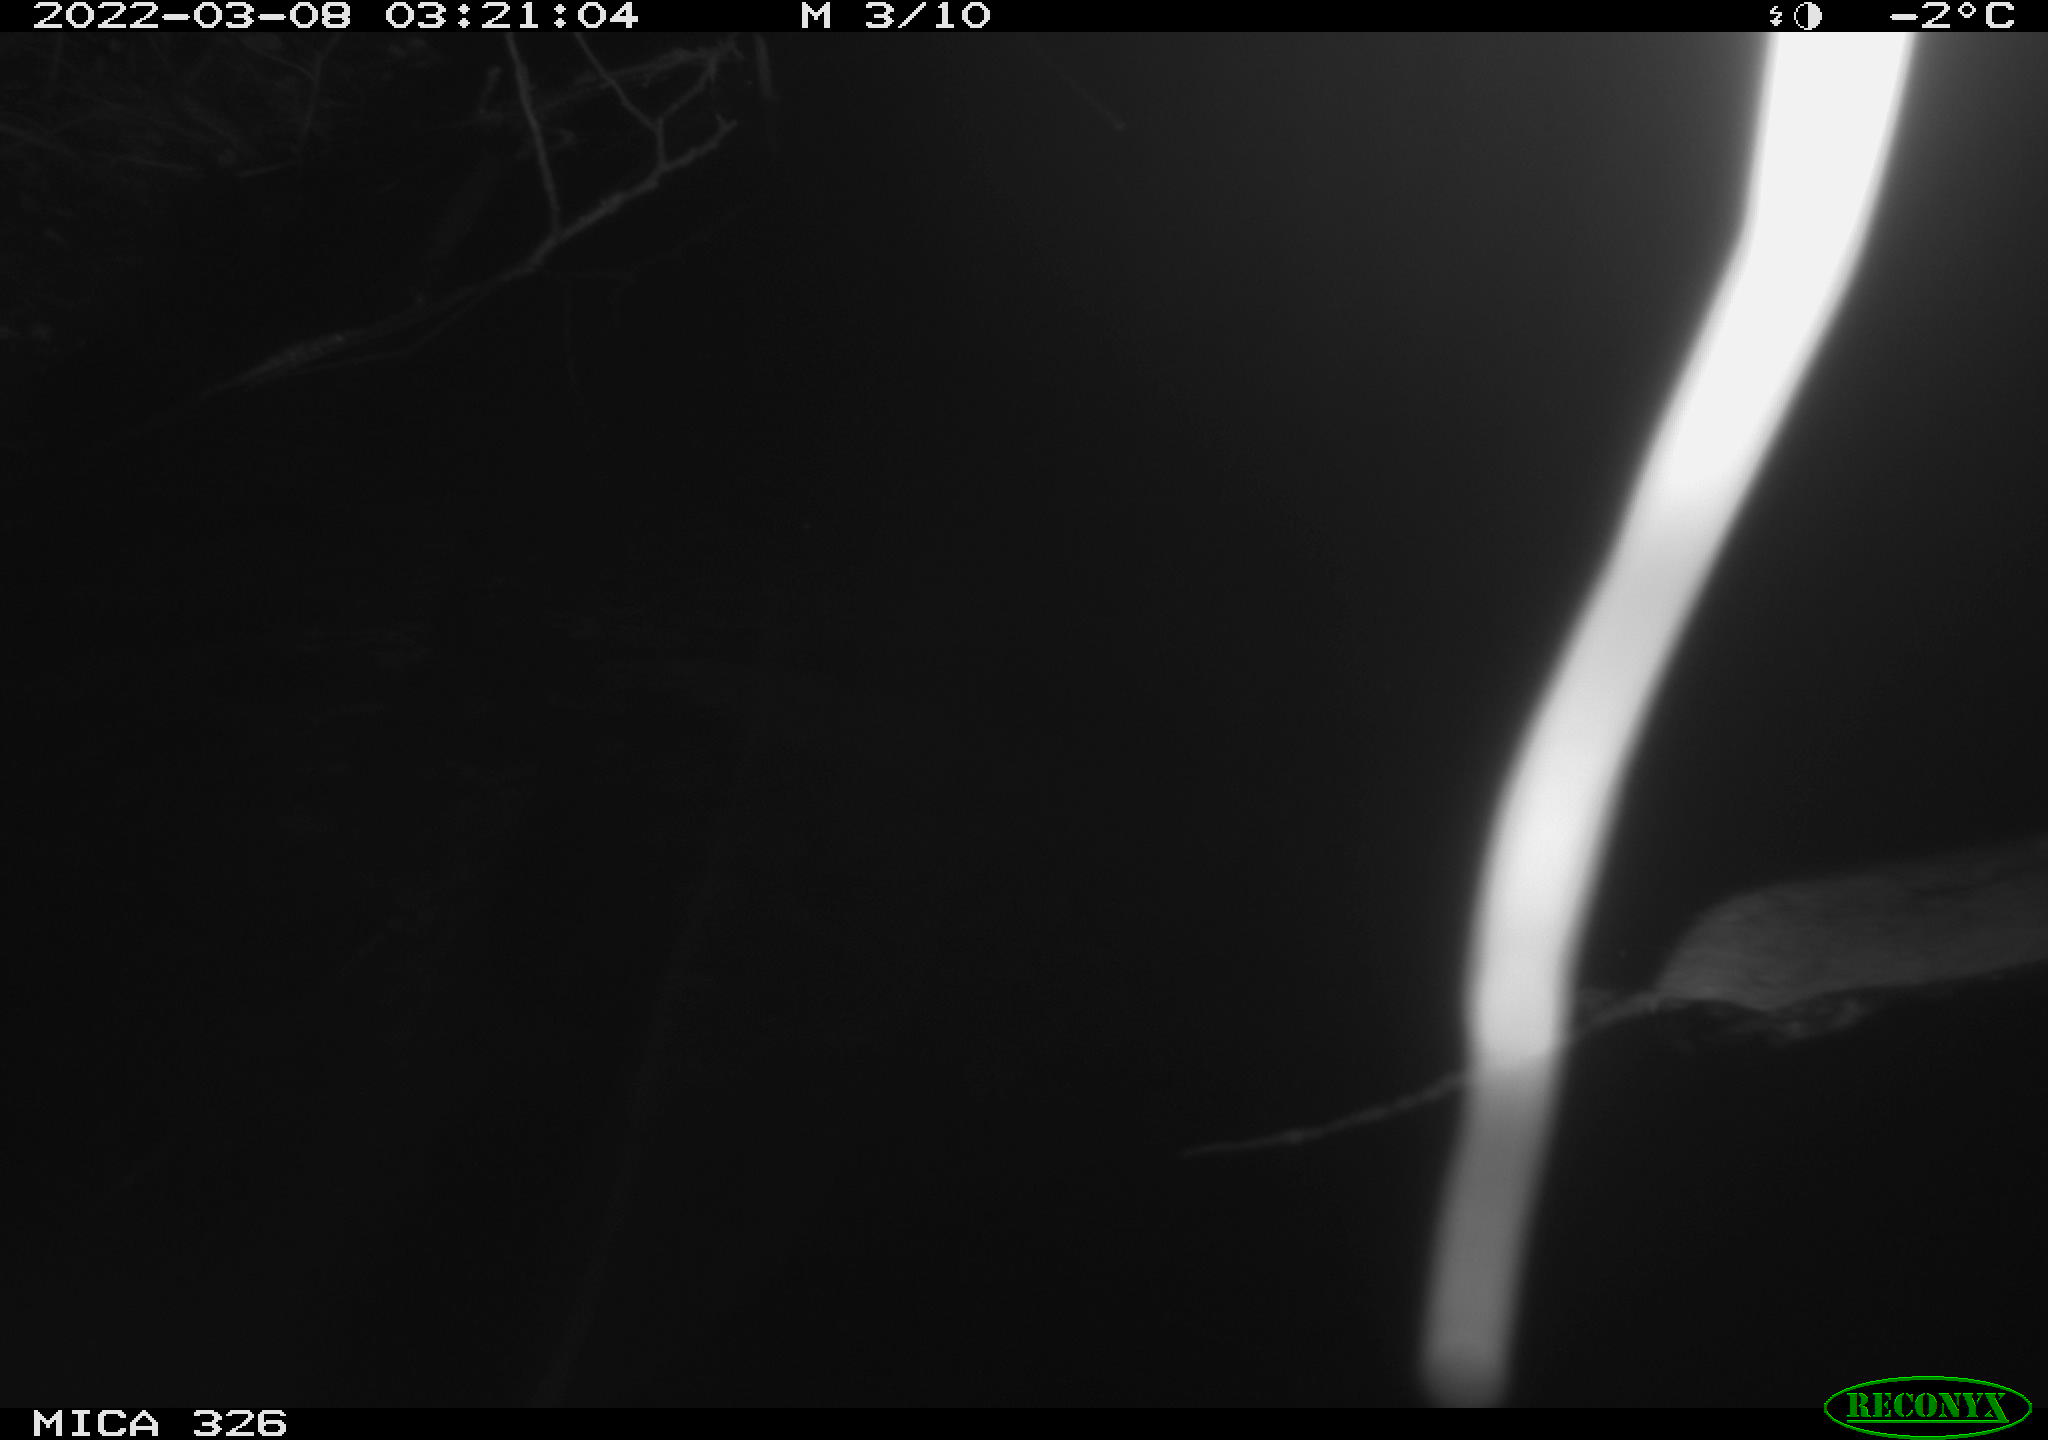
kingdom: Animalia
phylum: Chordata
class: Mammalia
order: Rodentia
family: Muridae
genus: Rattus
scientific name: Rattus norvegicus
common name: Brown rat
